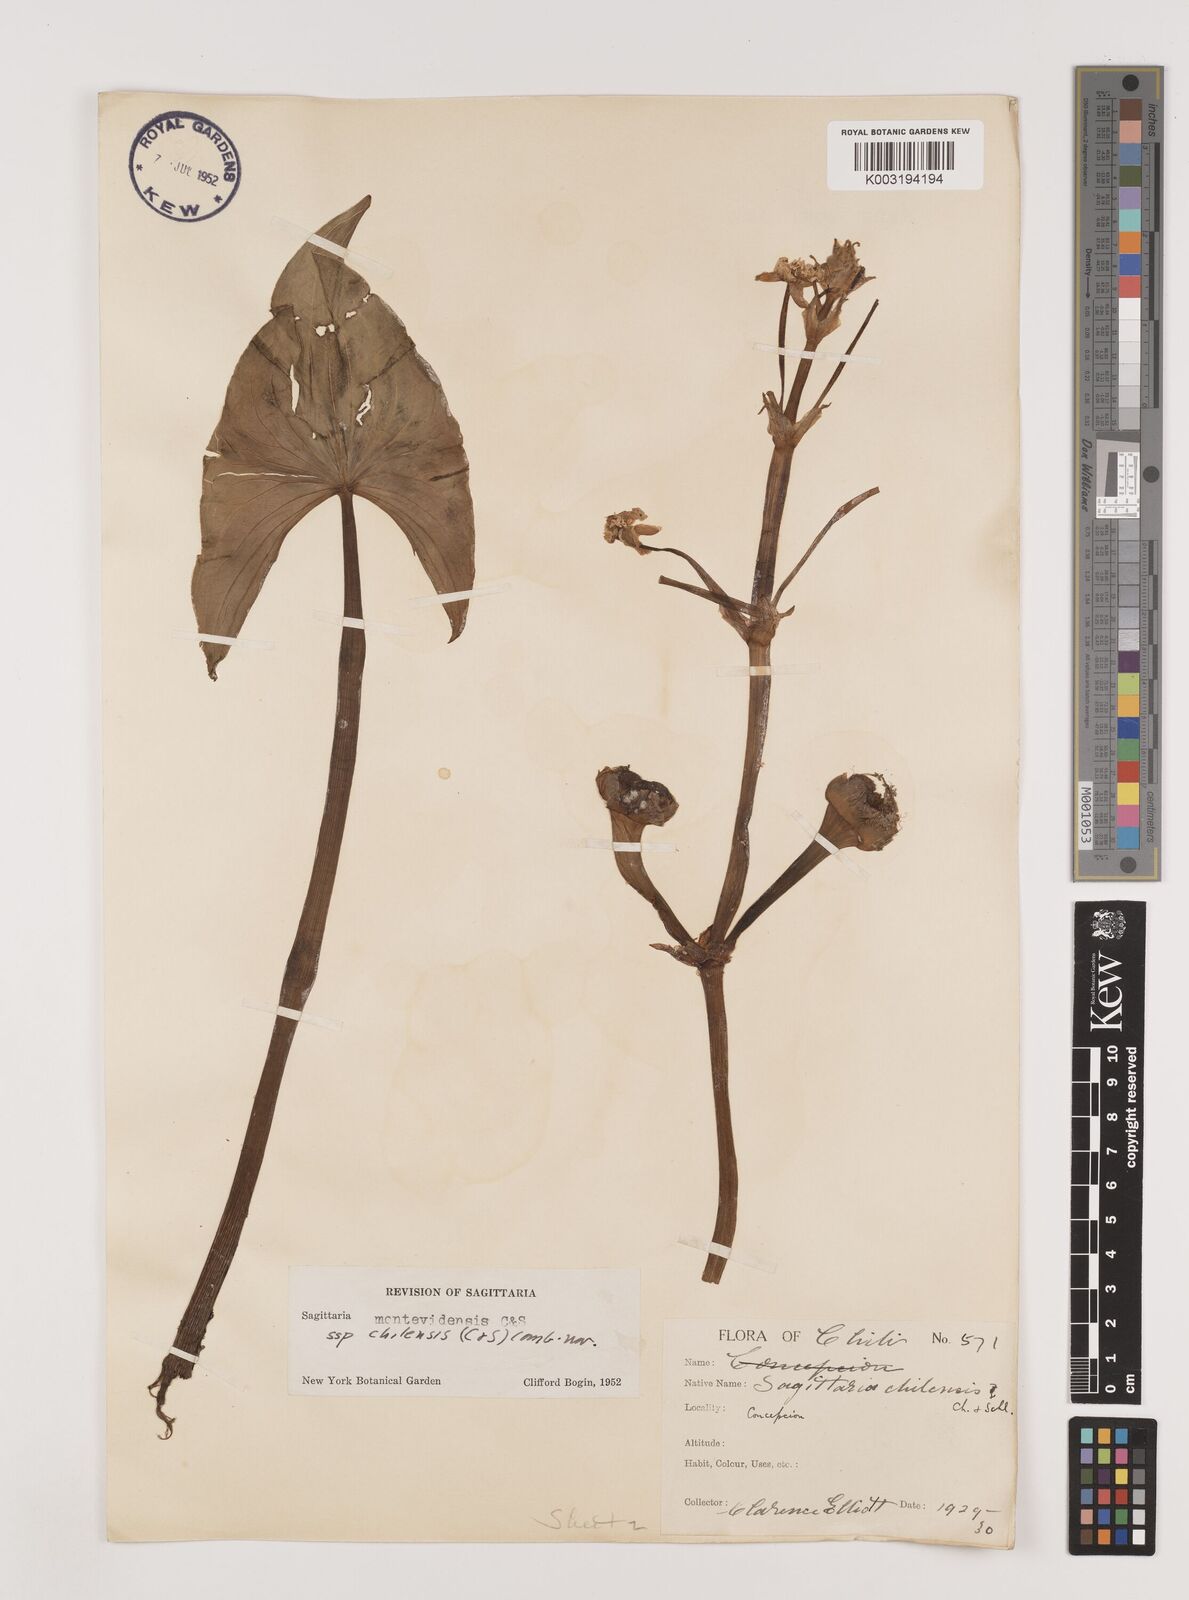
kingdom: Plantae
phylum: Tracheophyta
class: Liliopsida
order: Alismatales
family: Alismataceae
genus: Sagittaria
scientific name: Sagittaria montevidensis
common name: Giant arrowhead
